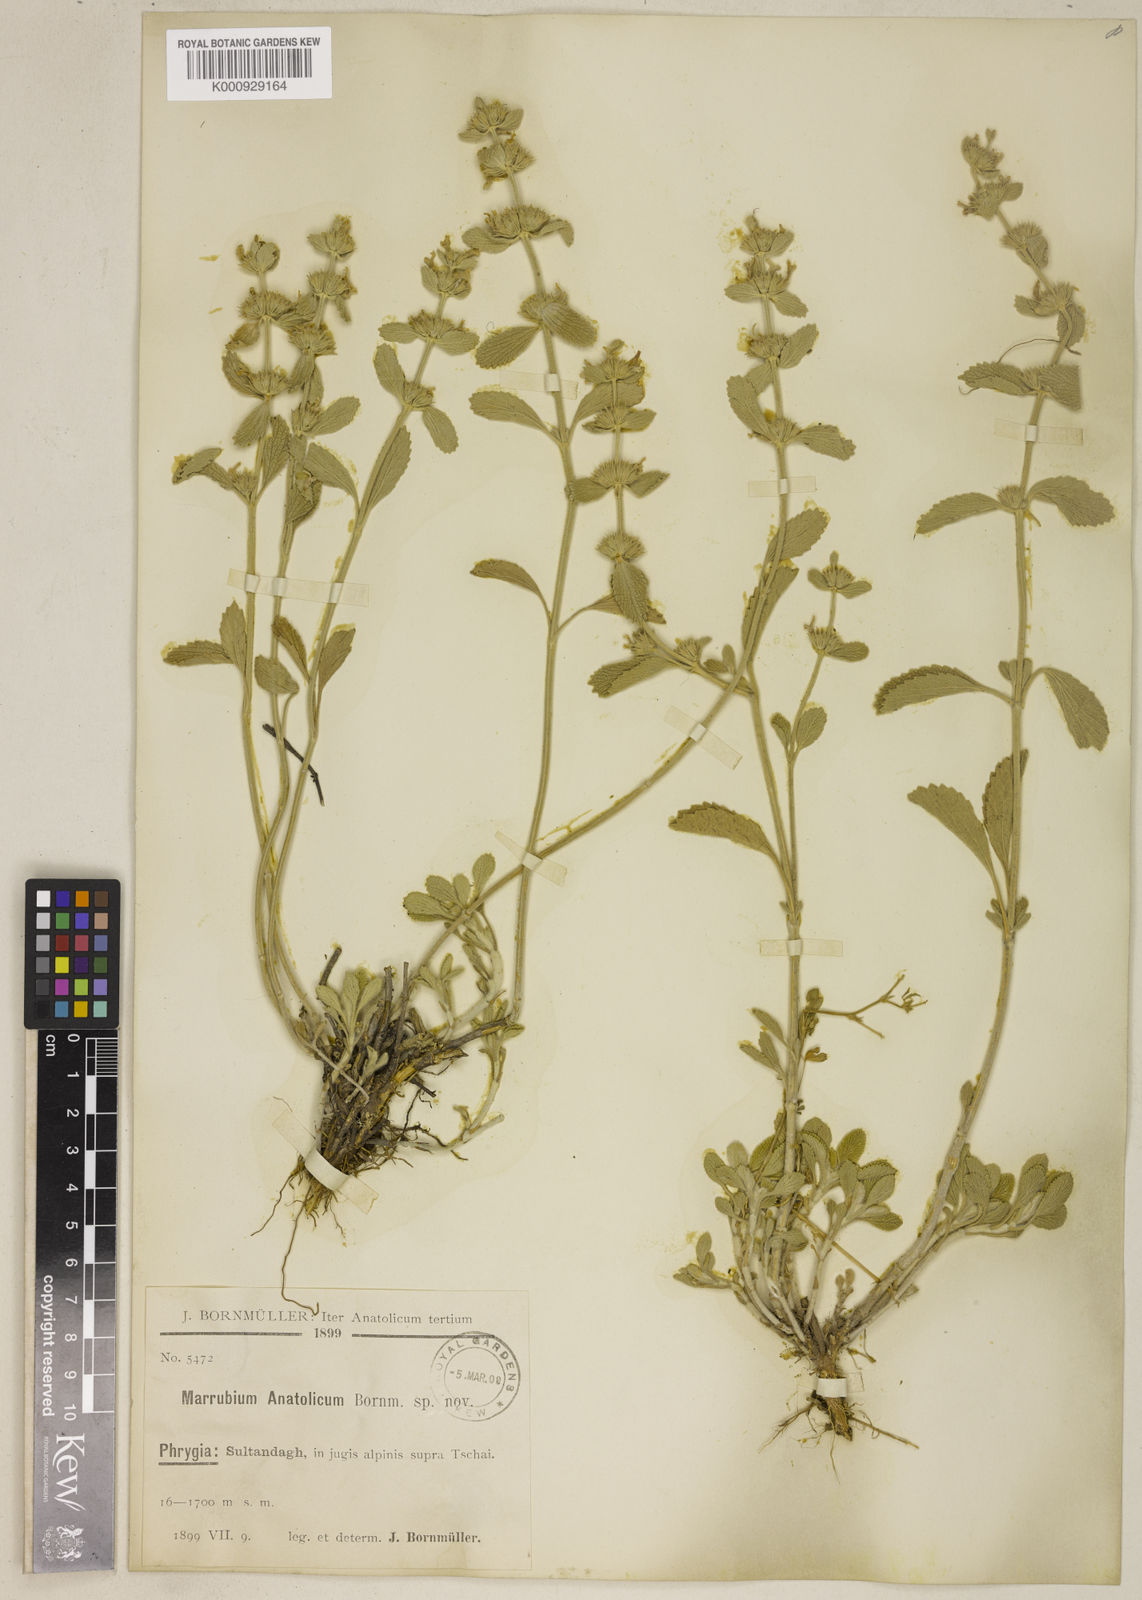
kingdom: Plantae
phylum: Tracheophyta
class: Magnoliopsida
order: Lamiales
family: Lamiaceae
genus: Marrubium
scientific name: Marrubium cuneatum
